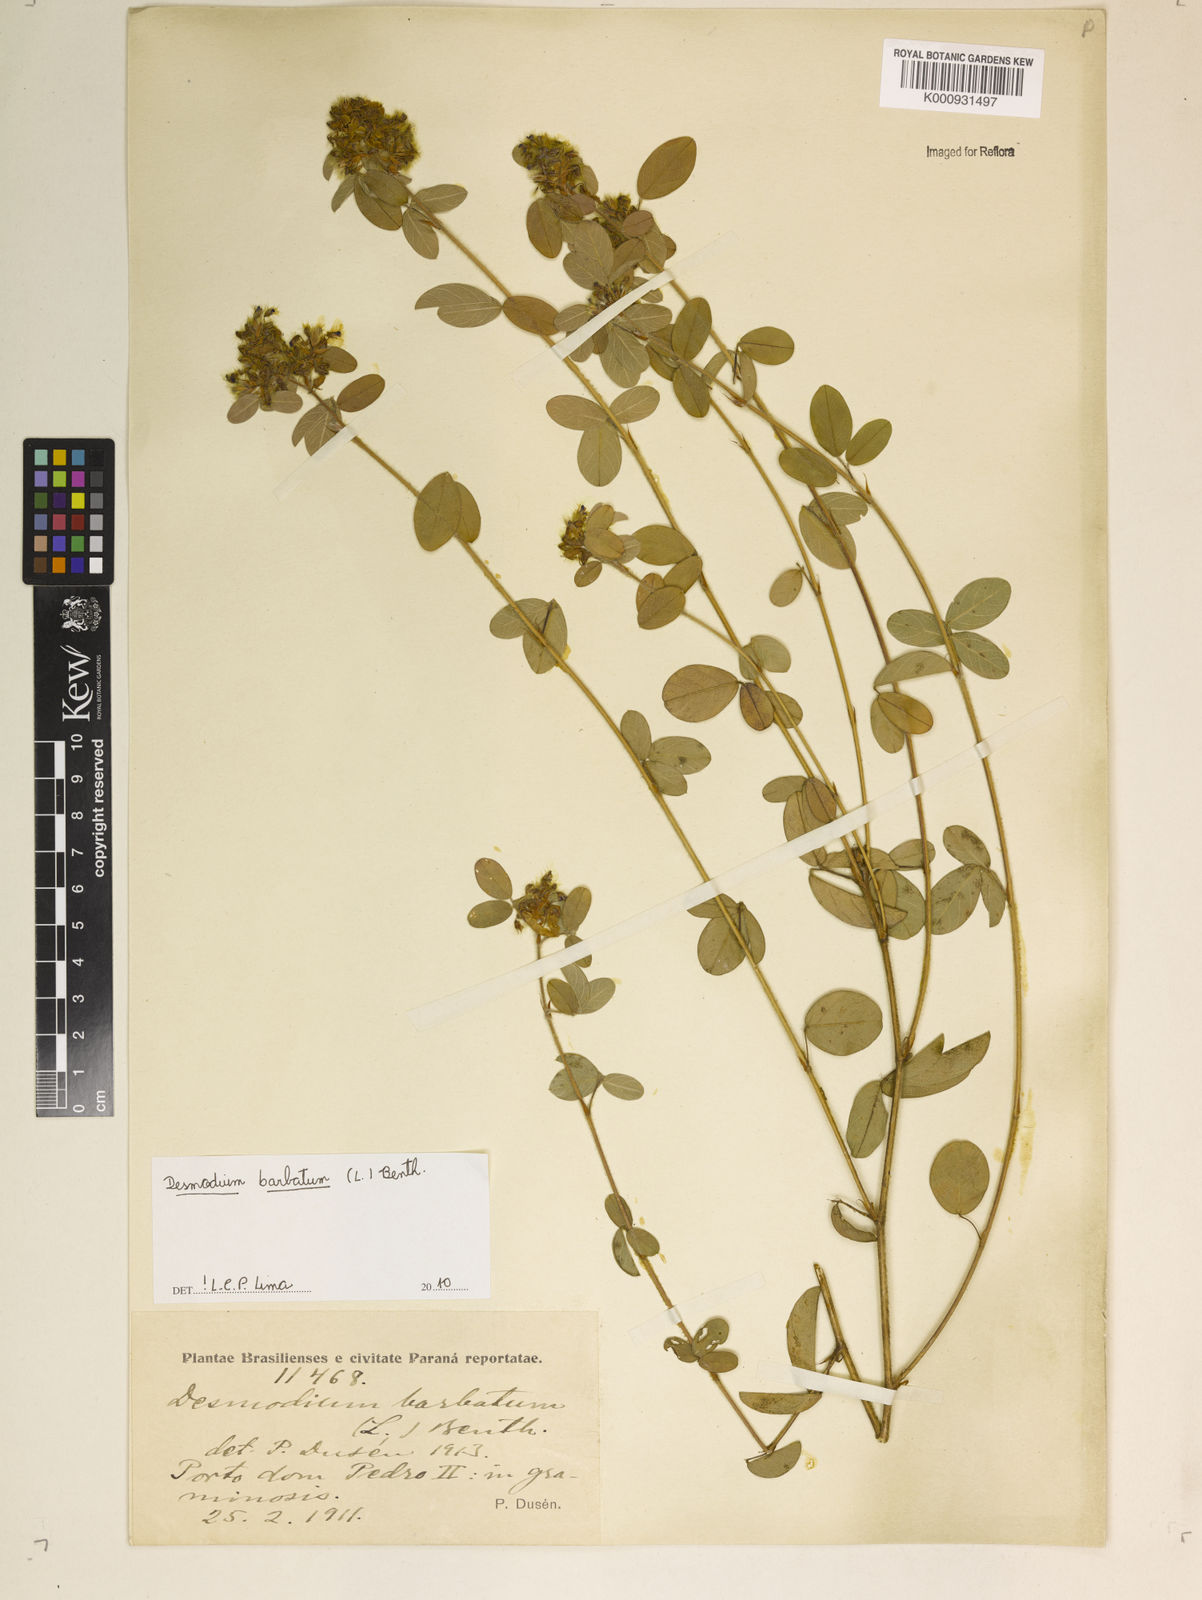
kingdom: Plantae
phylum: Tracheophyta
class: Magnoliopsida
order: Fabales
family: Fabaceae
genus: Grona
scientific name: Grona barbata
